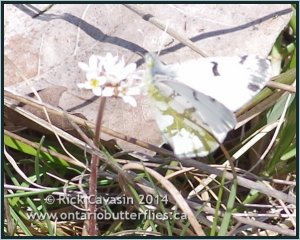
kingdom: Animalia
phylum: Arthropoda
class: Insecta
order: Lepidoptera
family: Pieridae
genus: Euchloe
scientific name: Euchloe olympia
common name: Olympia Marble
